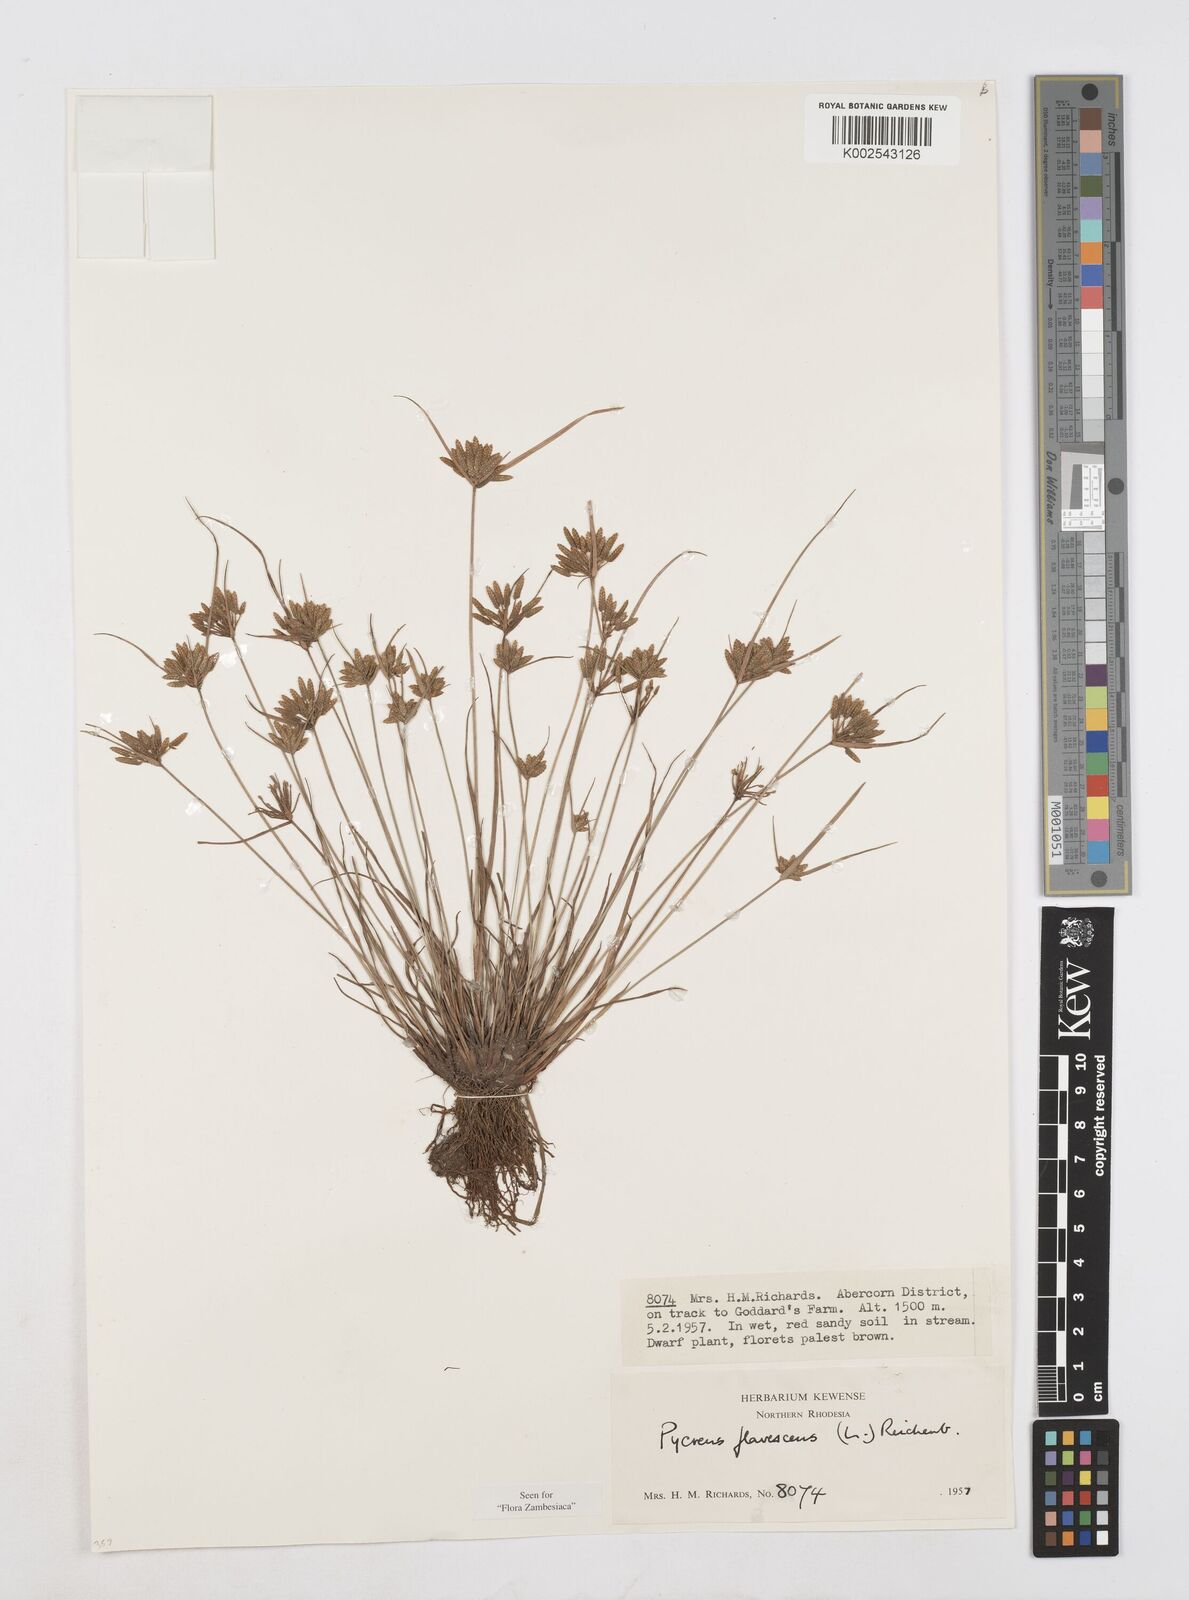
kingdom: Plantae
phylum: Tracheophyta
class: Liliopsida
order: Poales
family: Cyperaceae
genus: Cyperus
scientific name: Cyperus flavescens
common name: Yellow galingale
